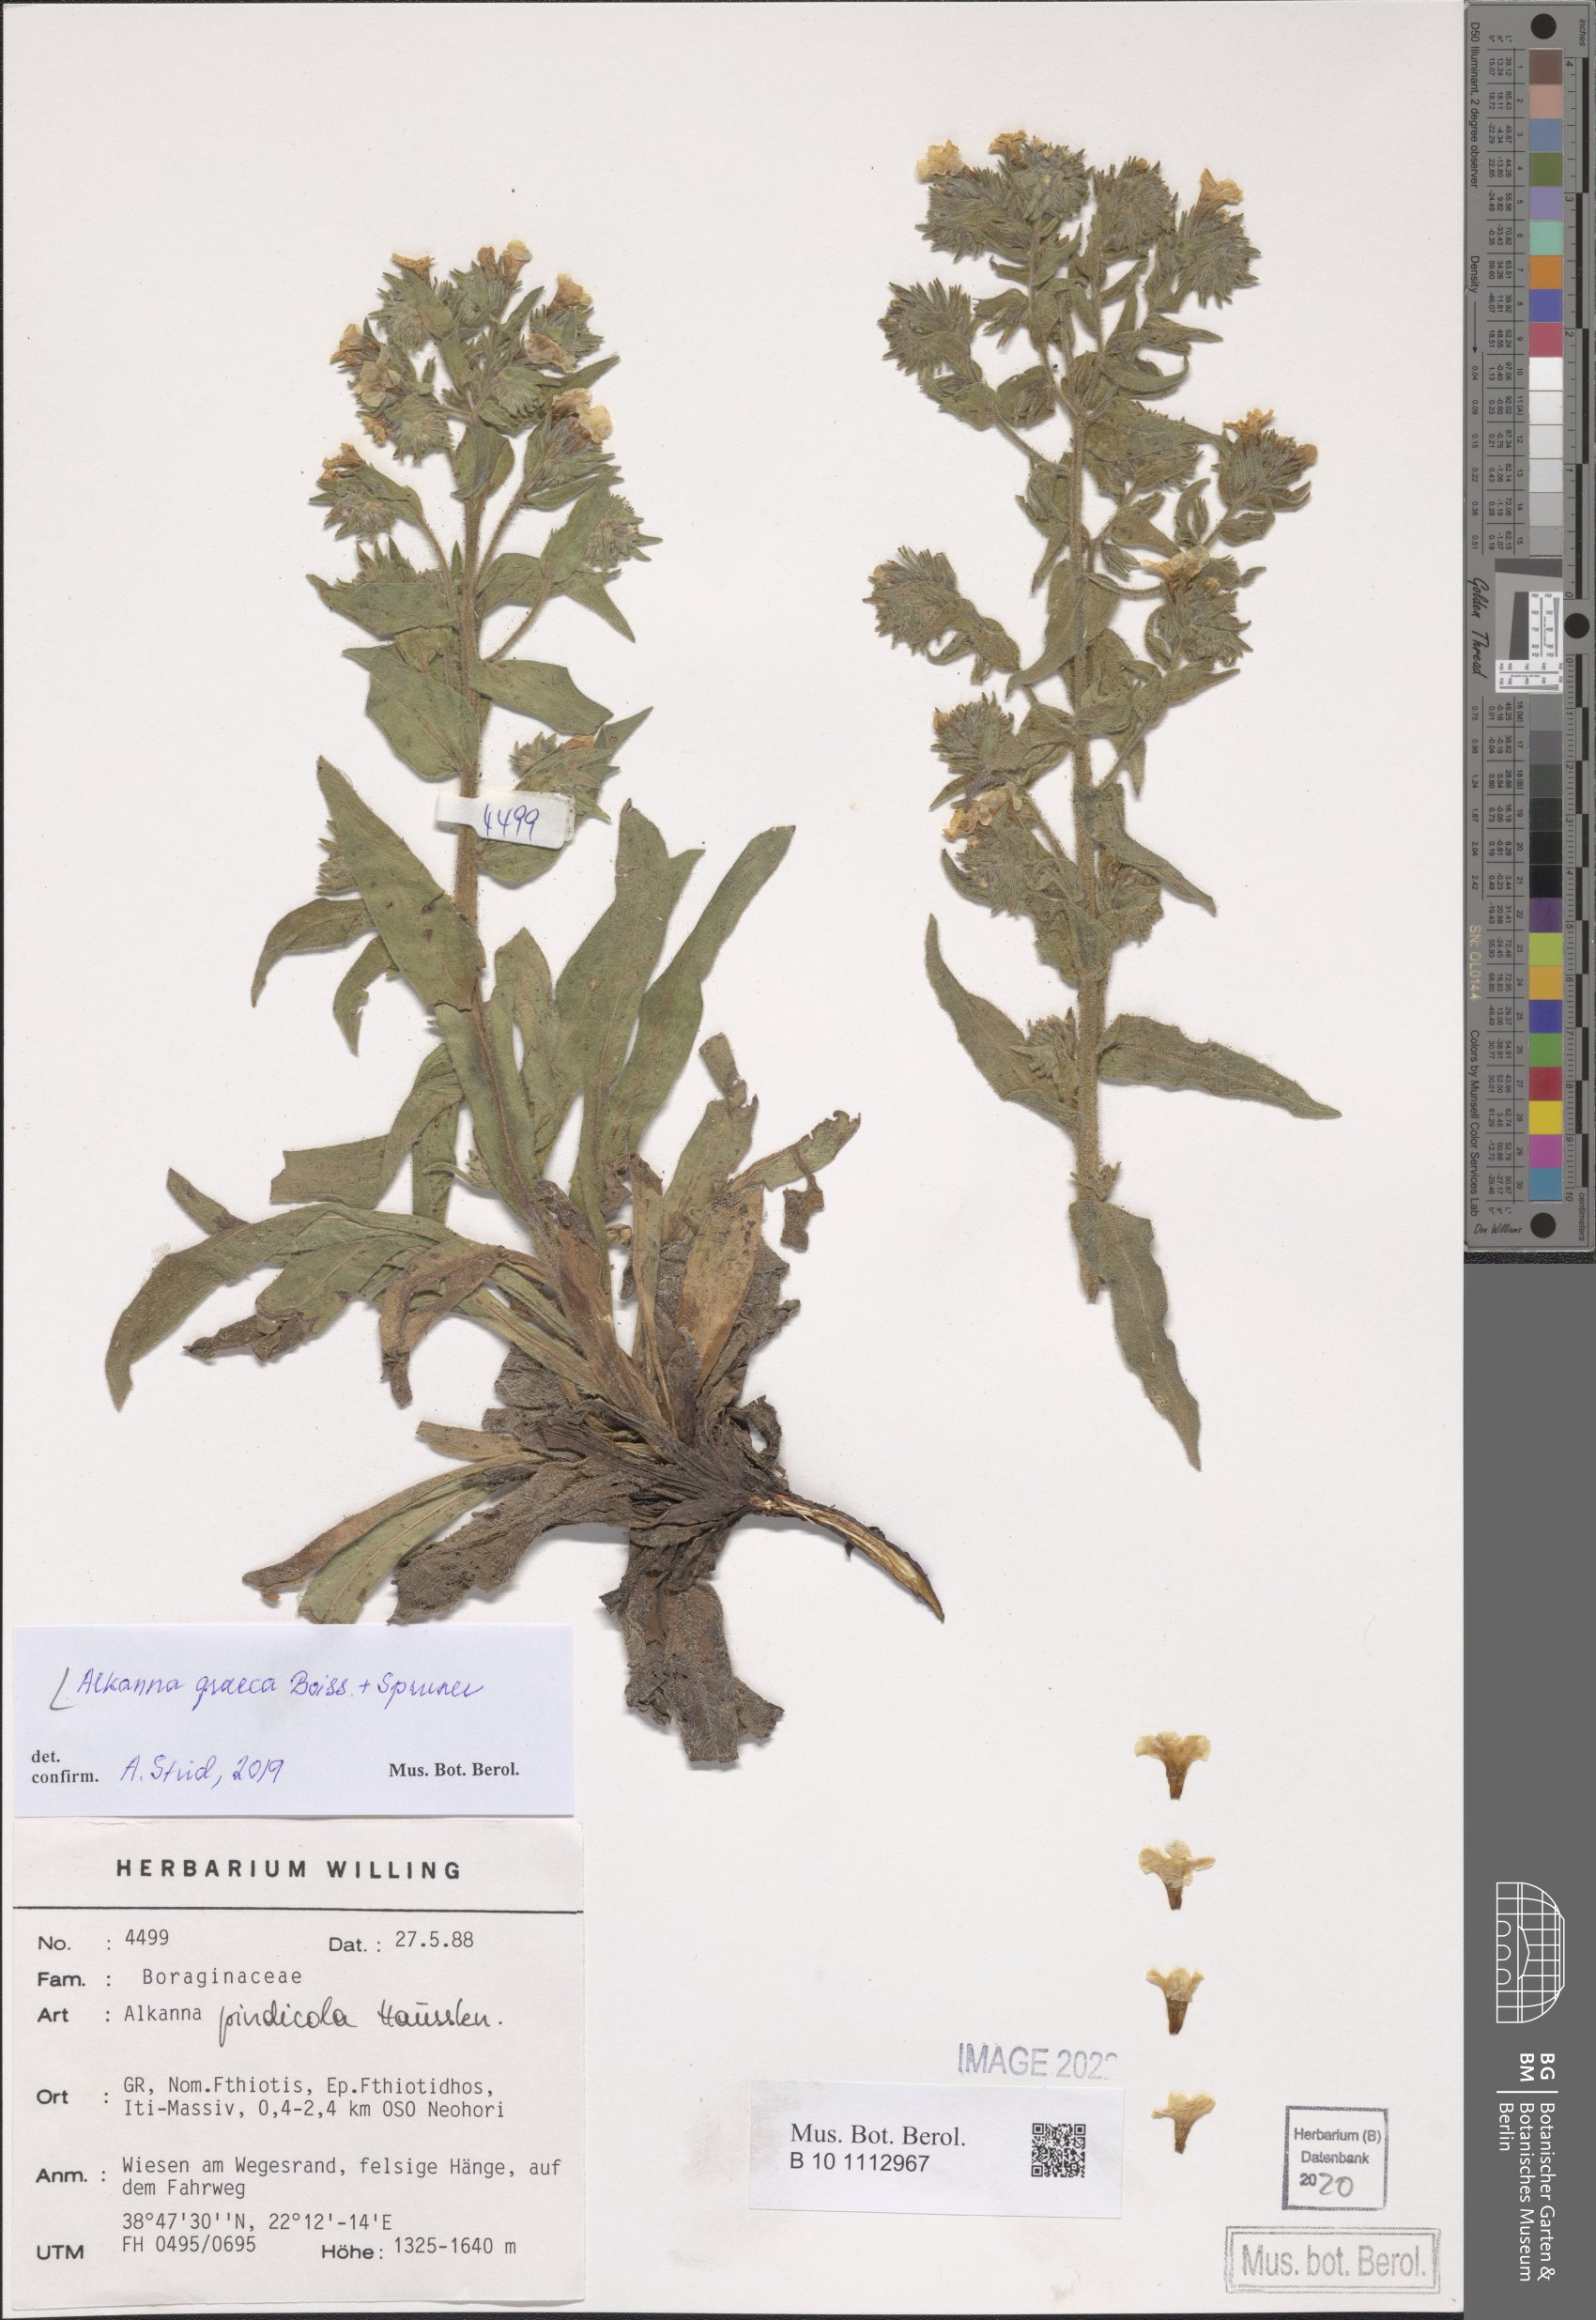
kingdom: Plantae
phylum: Tracheophyta
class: Magnoliopsida
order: Boraginales
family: Boraginaceae
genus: Alkanna
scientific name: Alkanna graeca
